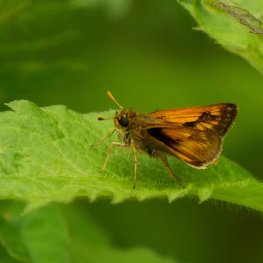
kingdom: Animalia
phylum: Arthropoda
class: Insecta
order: Lepidoptera
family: Hesperiidae
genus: Polites
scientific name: Polites
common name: Long Dash Skipper
